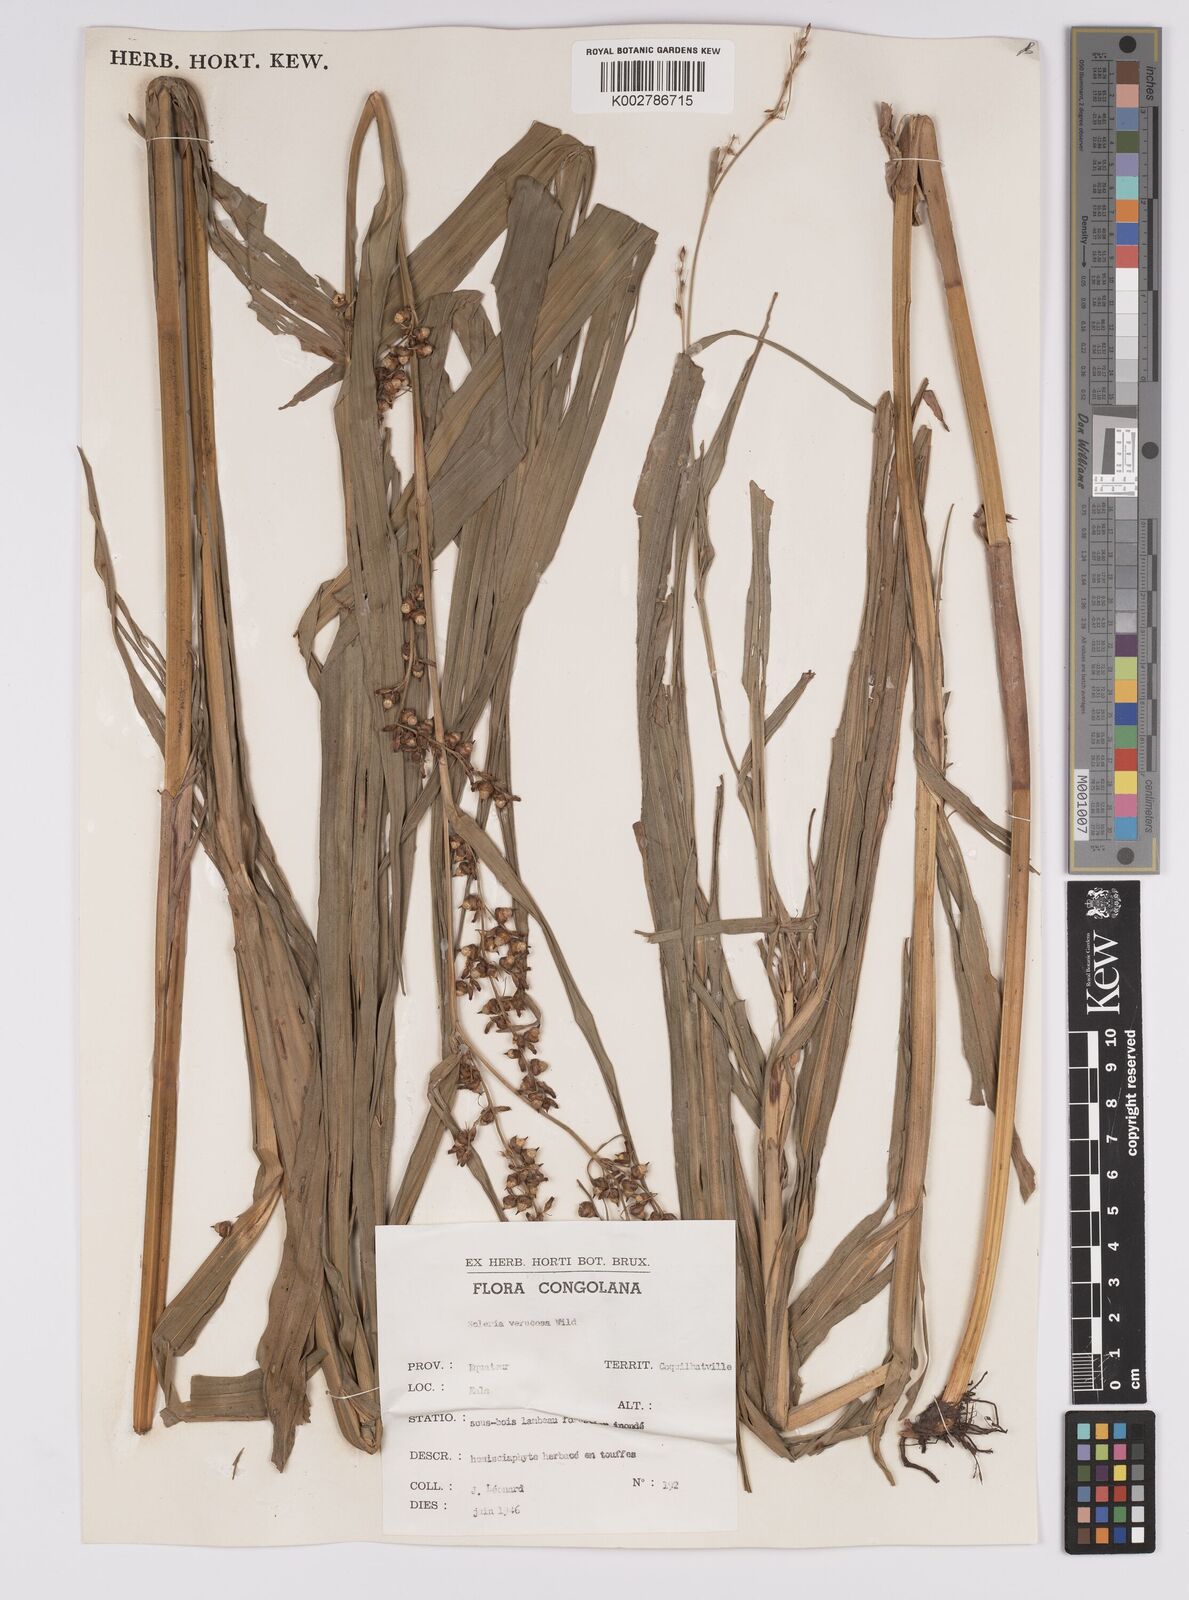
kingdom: Plantae
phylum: Tracheophyta
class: Liliopsida
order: Poales
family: Cyperaceae
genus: Scleria
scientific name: Scleria verrucosa
